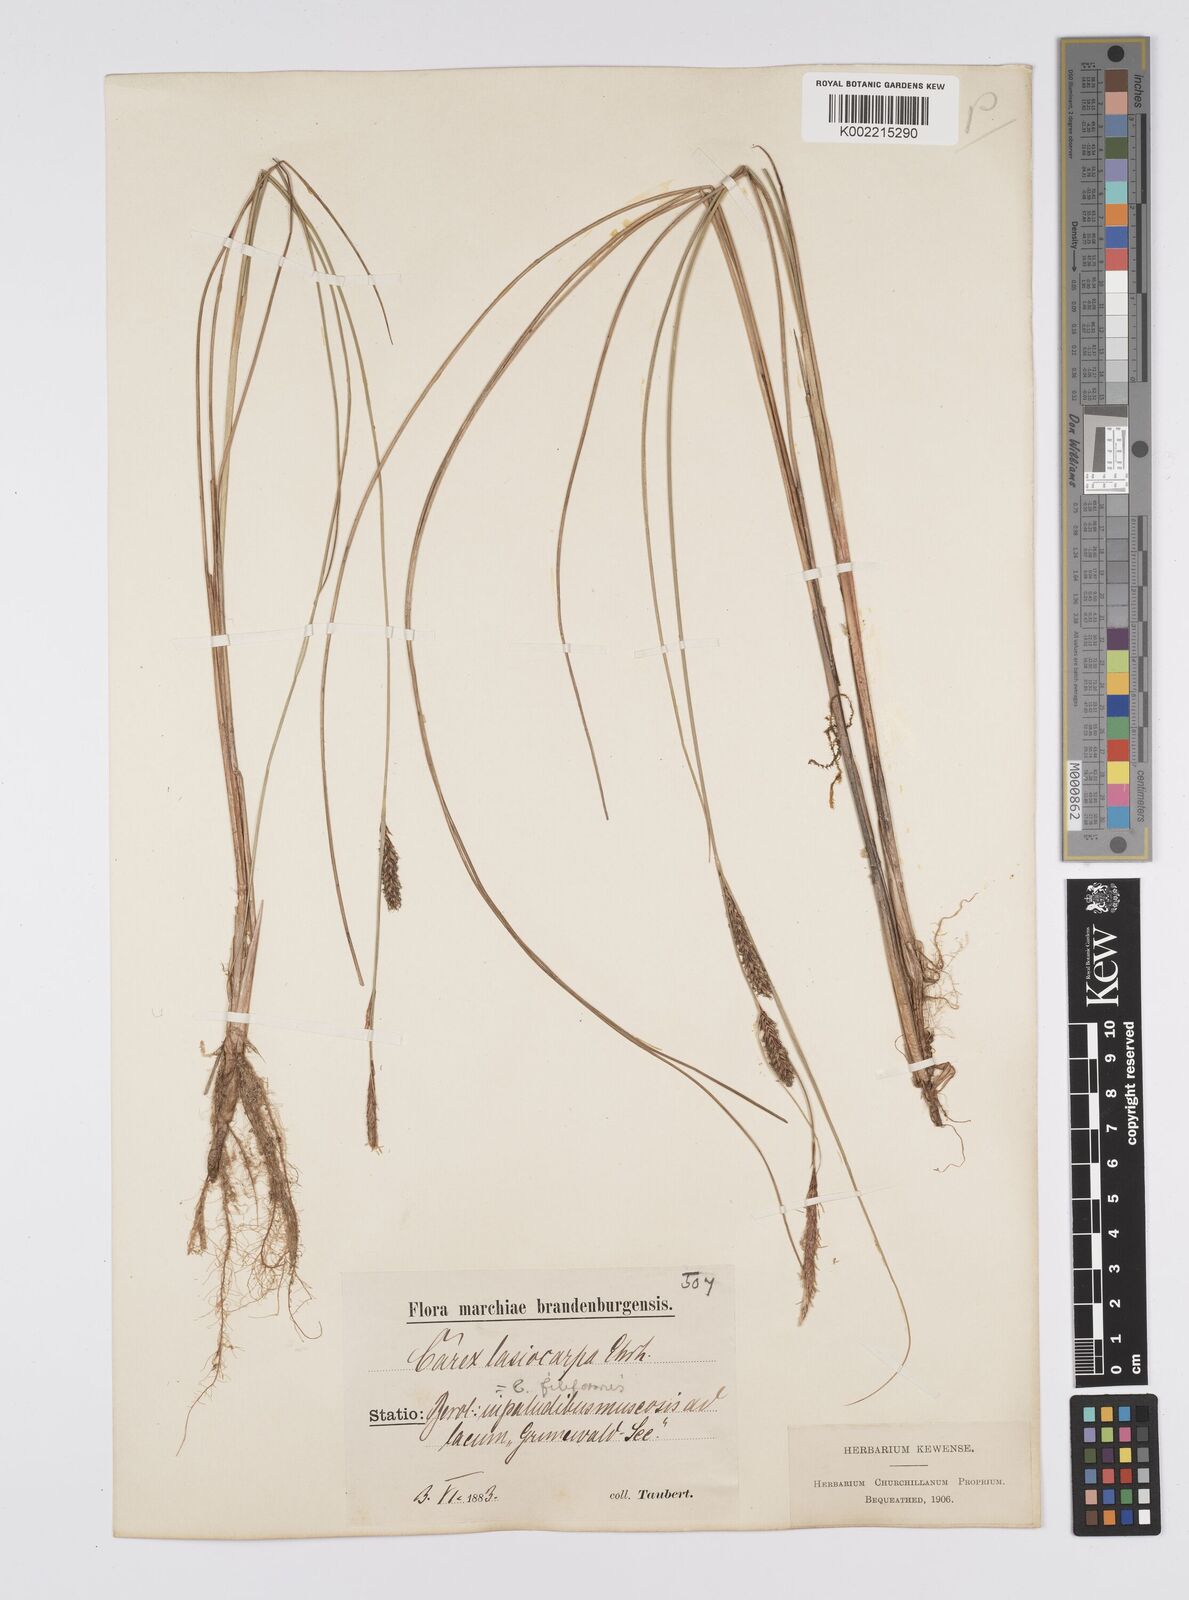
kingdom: Plantae
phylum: Tracheophyta
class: Liliopsida
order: Poales
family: Cyperaceae
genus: Carex
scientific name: Carex lasiocarpa
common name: Slender sedge
